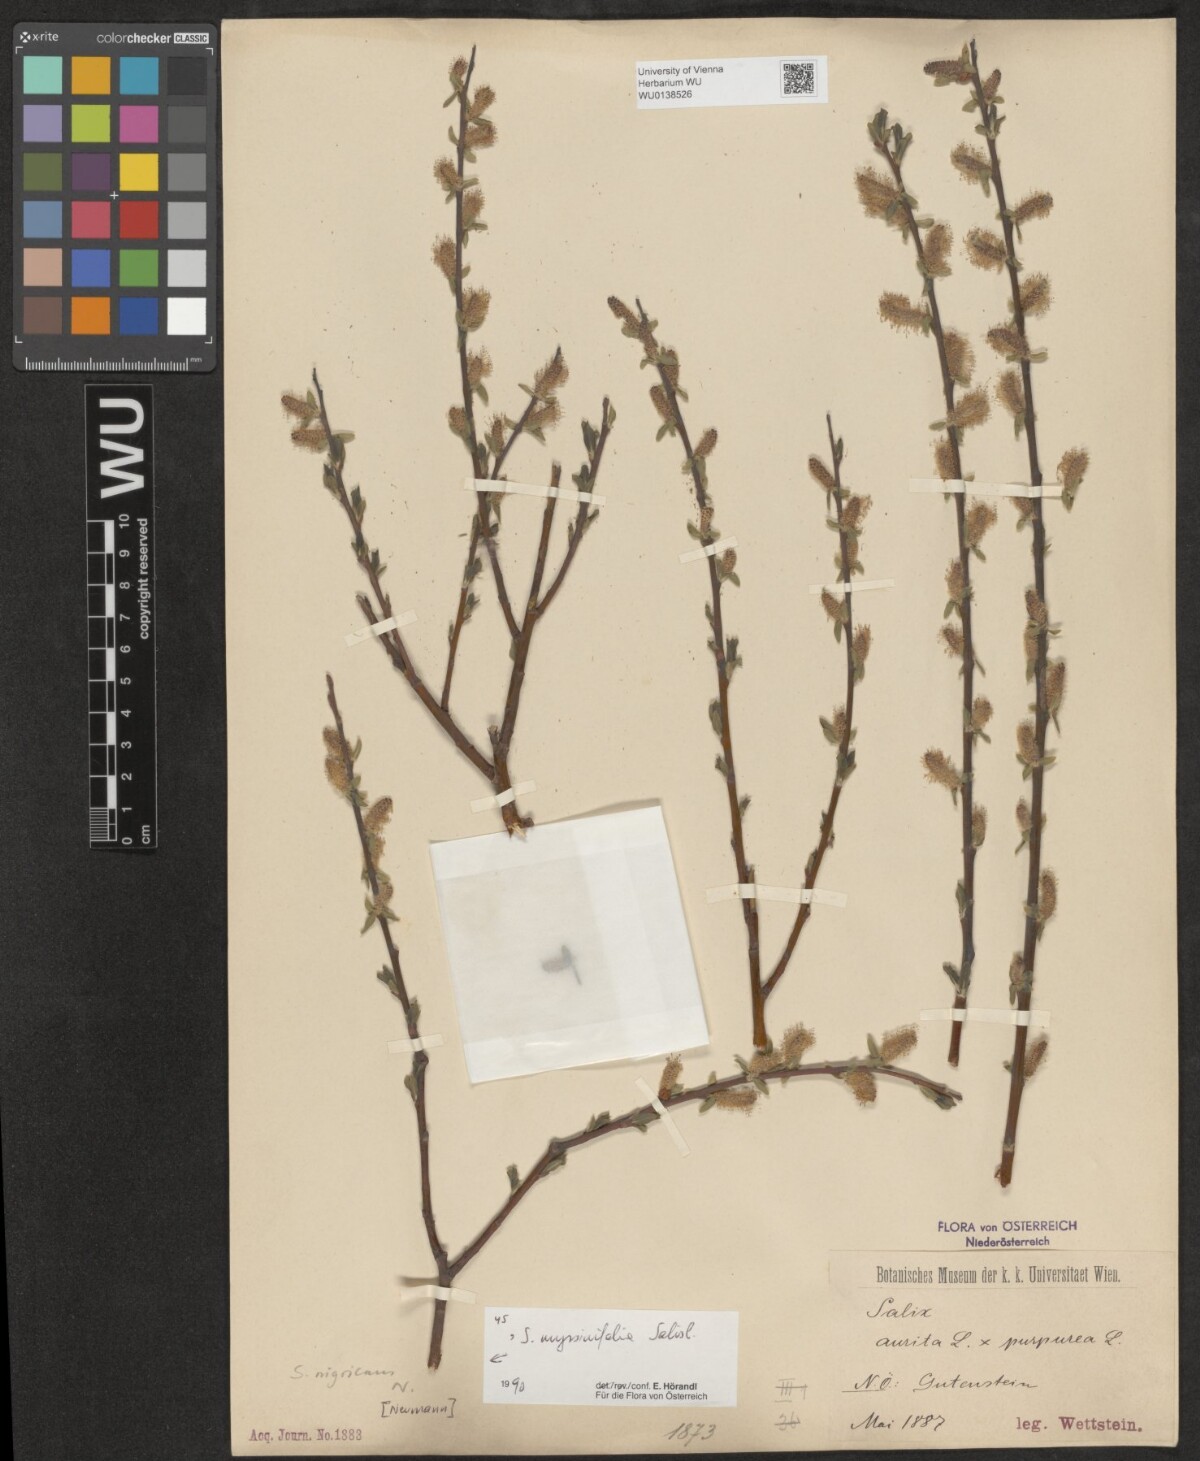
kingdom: Plantae
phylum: Tracheophyta
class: Magnoliopsida
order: Malpighiales
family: Salicaceae
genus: Salix
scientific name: Salix myrsinifolia
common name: Dark-leaved willow
